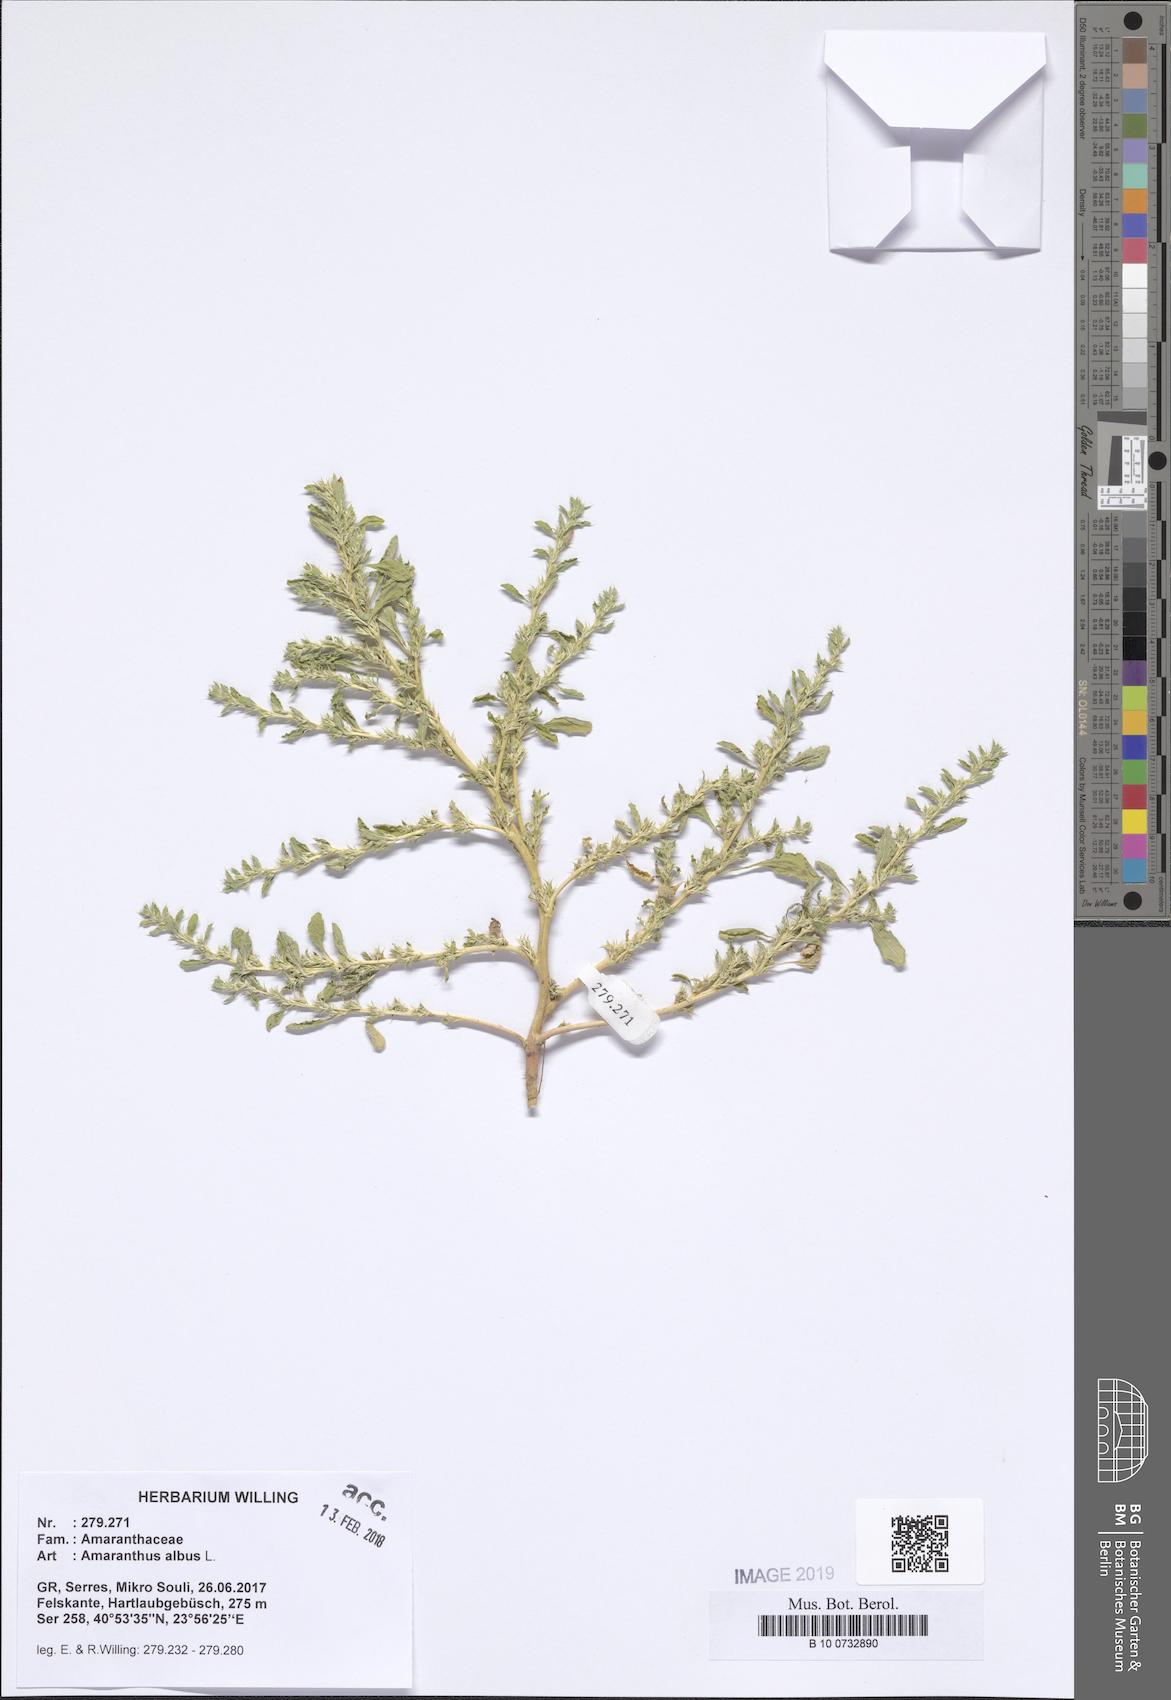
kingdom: Plantae
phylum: Tracheophyta
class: Magnoliopsida
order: Caryophyllales
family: Amaranthaceae
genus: Amaranthus
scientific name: Amaranthus albus
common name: White pigweed
